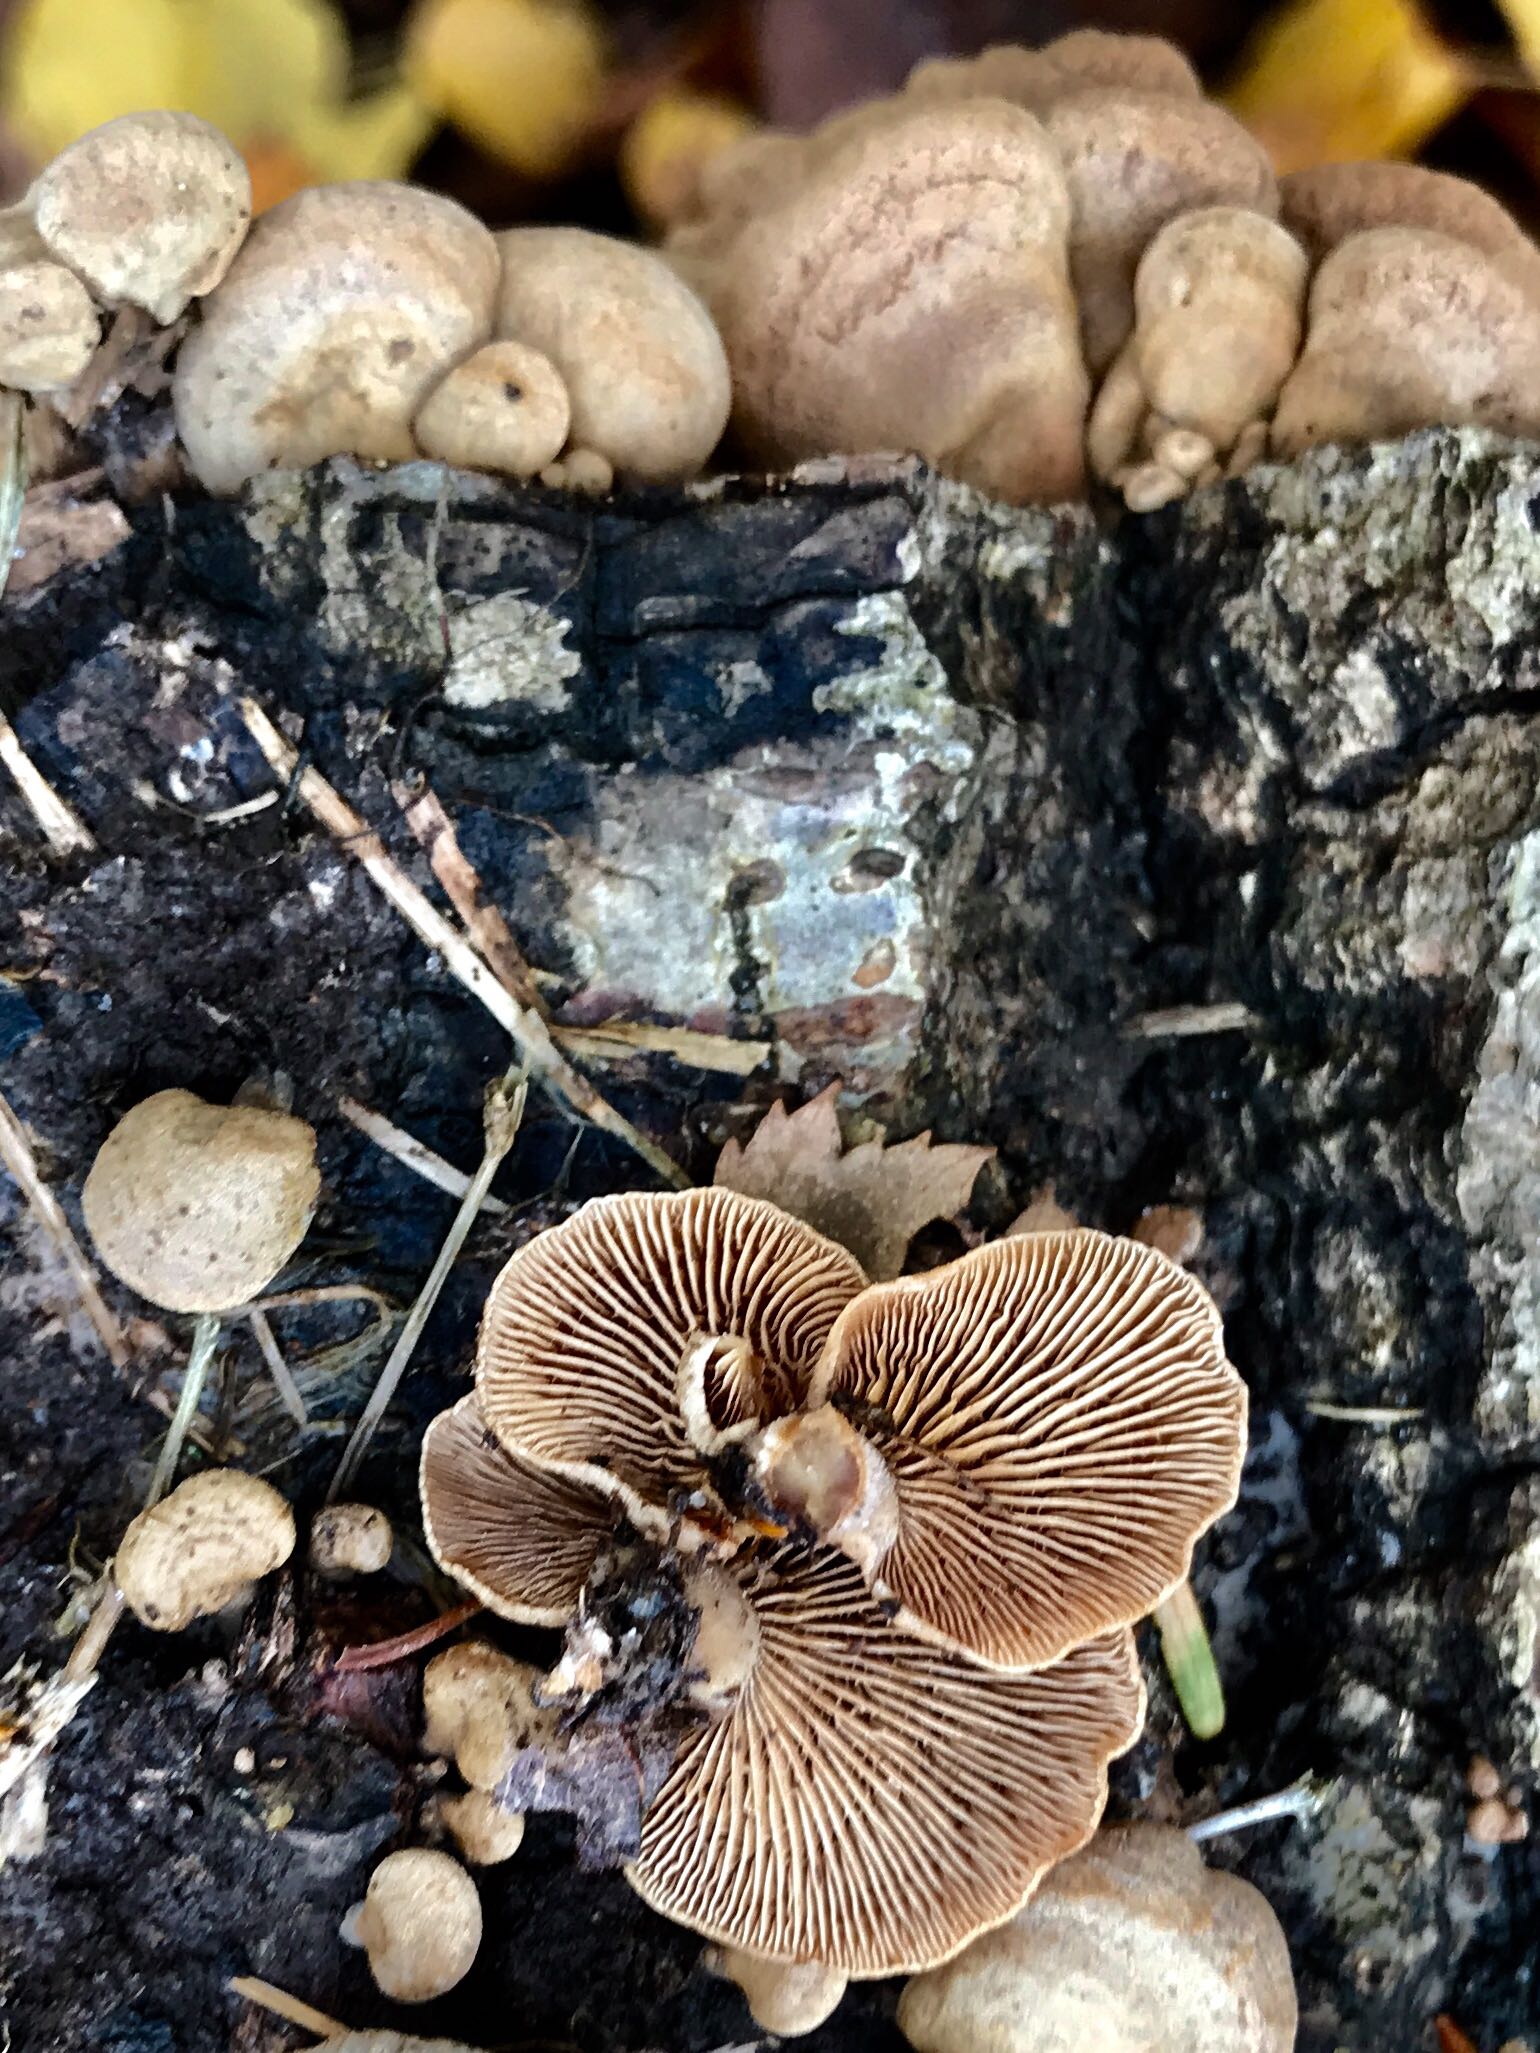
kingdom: Fungi
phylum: Basidiomycota
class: Agaricomycetes
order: Agaricales
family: Mycenaceae
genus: Panellus
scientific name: Panellus stipticus
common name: kliddet epaulethat
